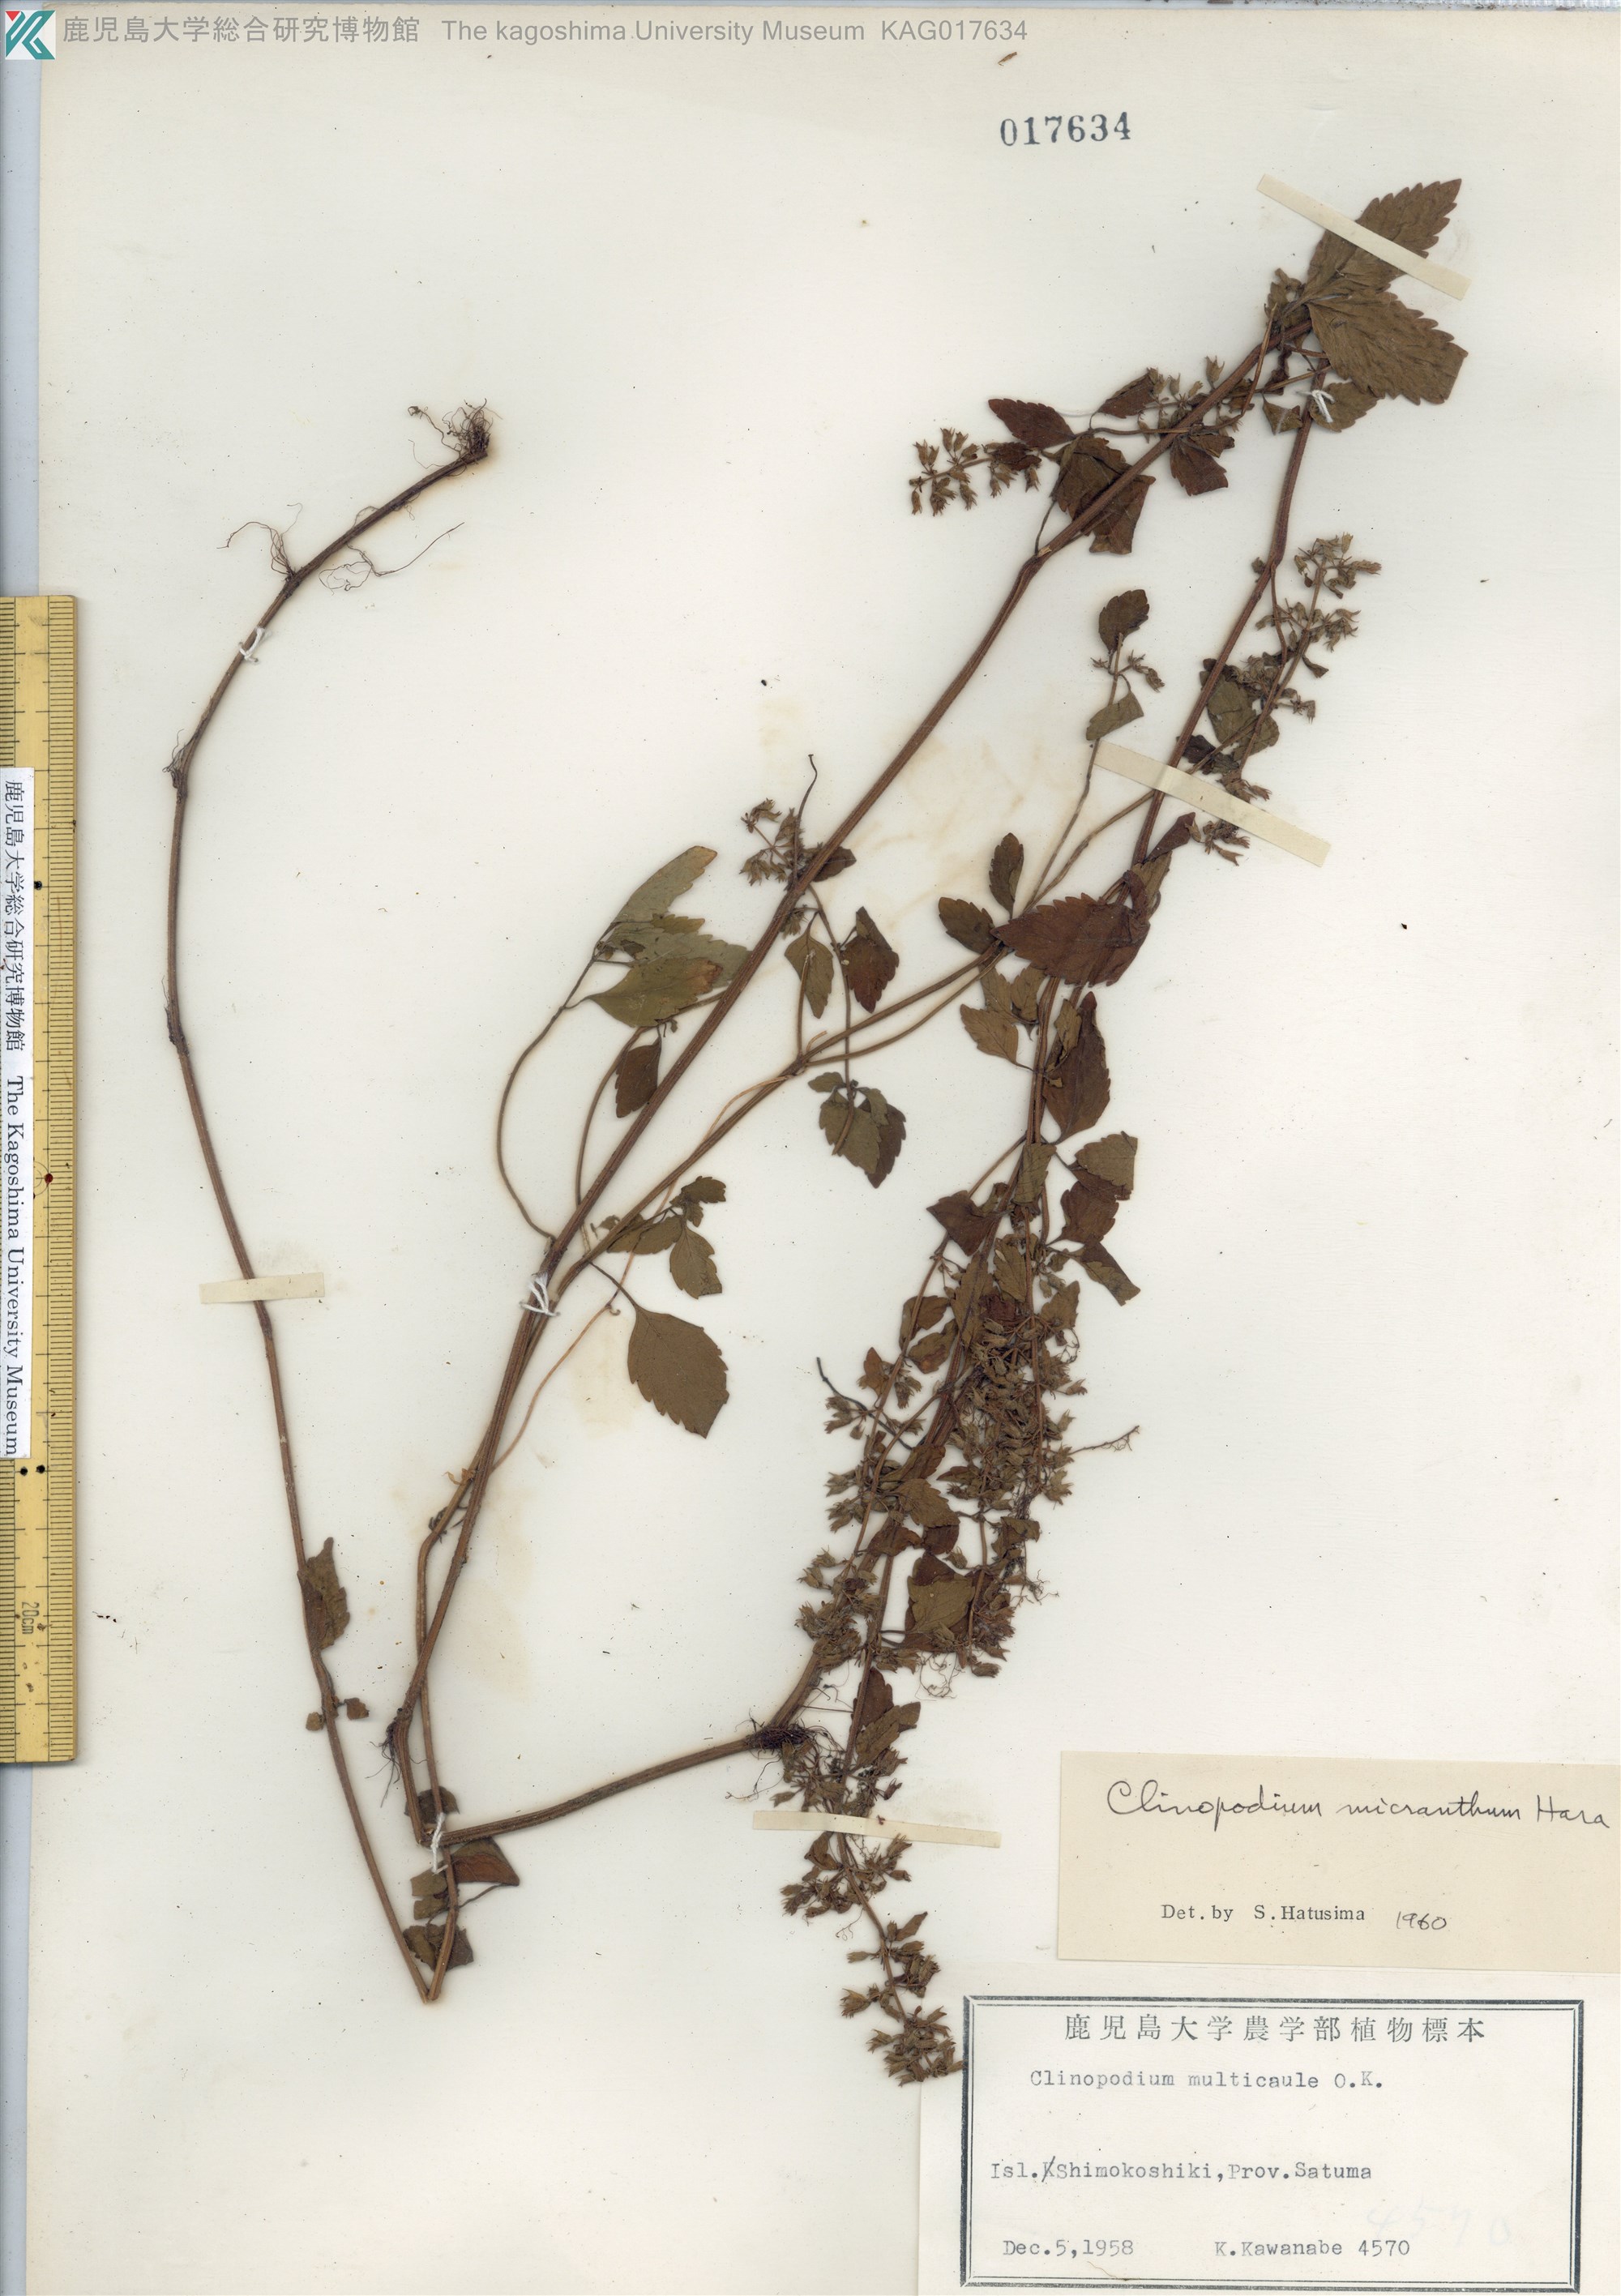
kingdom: Plantae
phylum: Tracheophyta
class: Magnoliopsida
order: Lamiales
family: Lamiaceae
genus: Clinopodium
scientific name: Clinopodium micranthum
